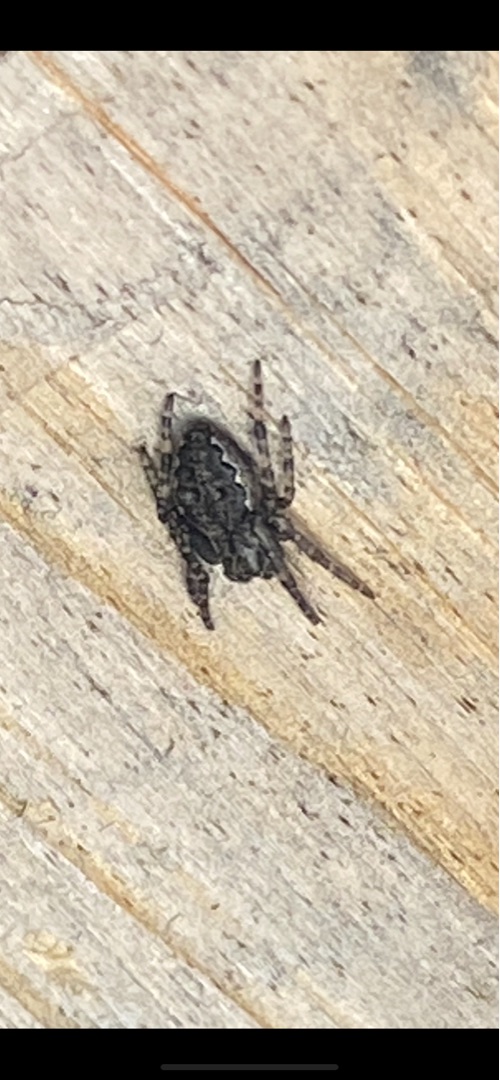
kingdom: Animalia
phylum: Arthropoda
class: Arachnida
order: Araneae
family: Araneidae
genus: Nuctenea
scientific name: Nuctenea umbratica
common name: Flad hjulspinder
